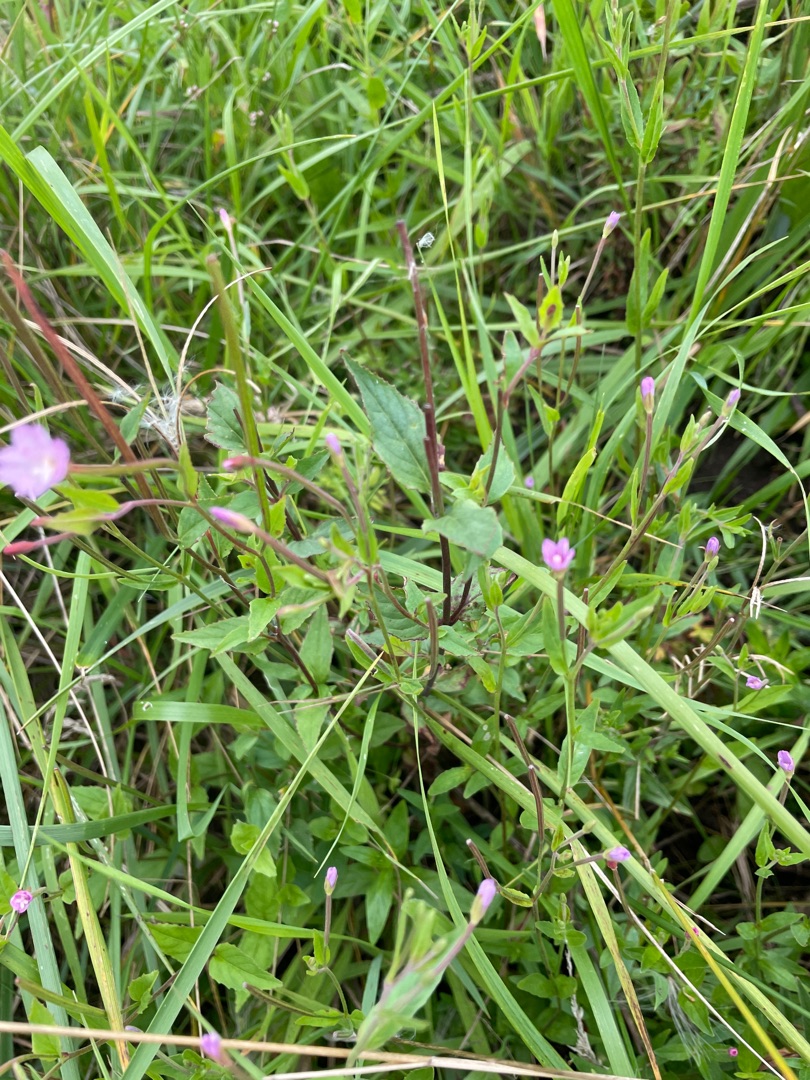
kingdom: Plantae
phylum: Tracheophyta
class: Magnoliopsida
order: Myrtales
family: Onagraceae
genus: Epilobium
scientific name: Epilobium montanum
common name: Glat dueurt
